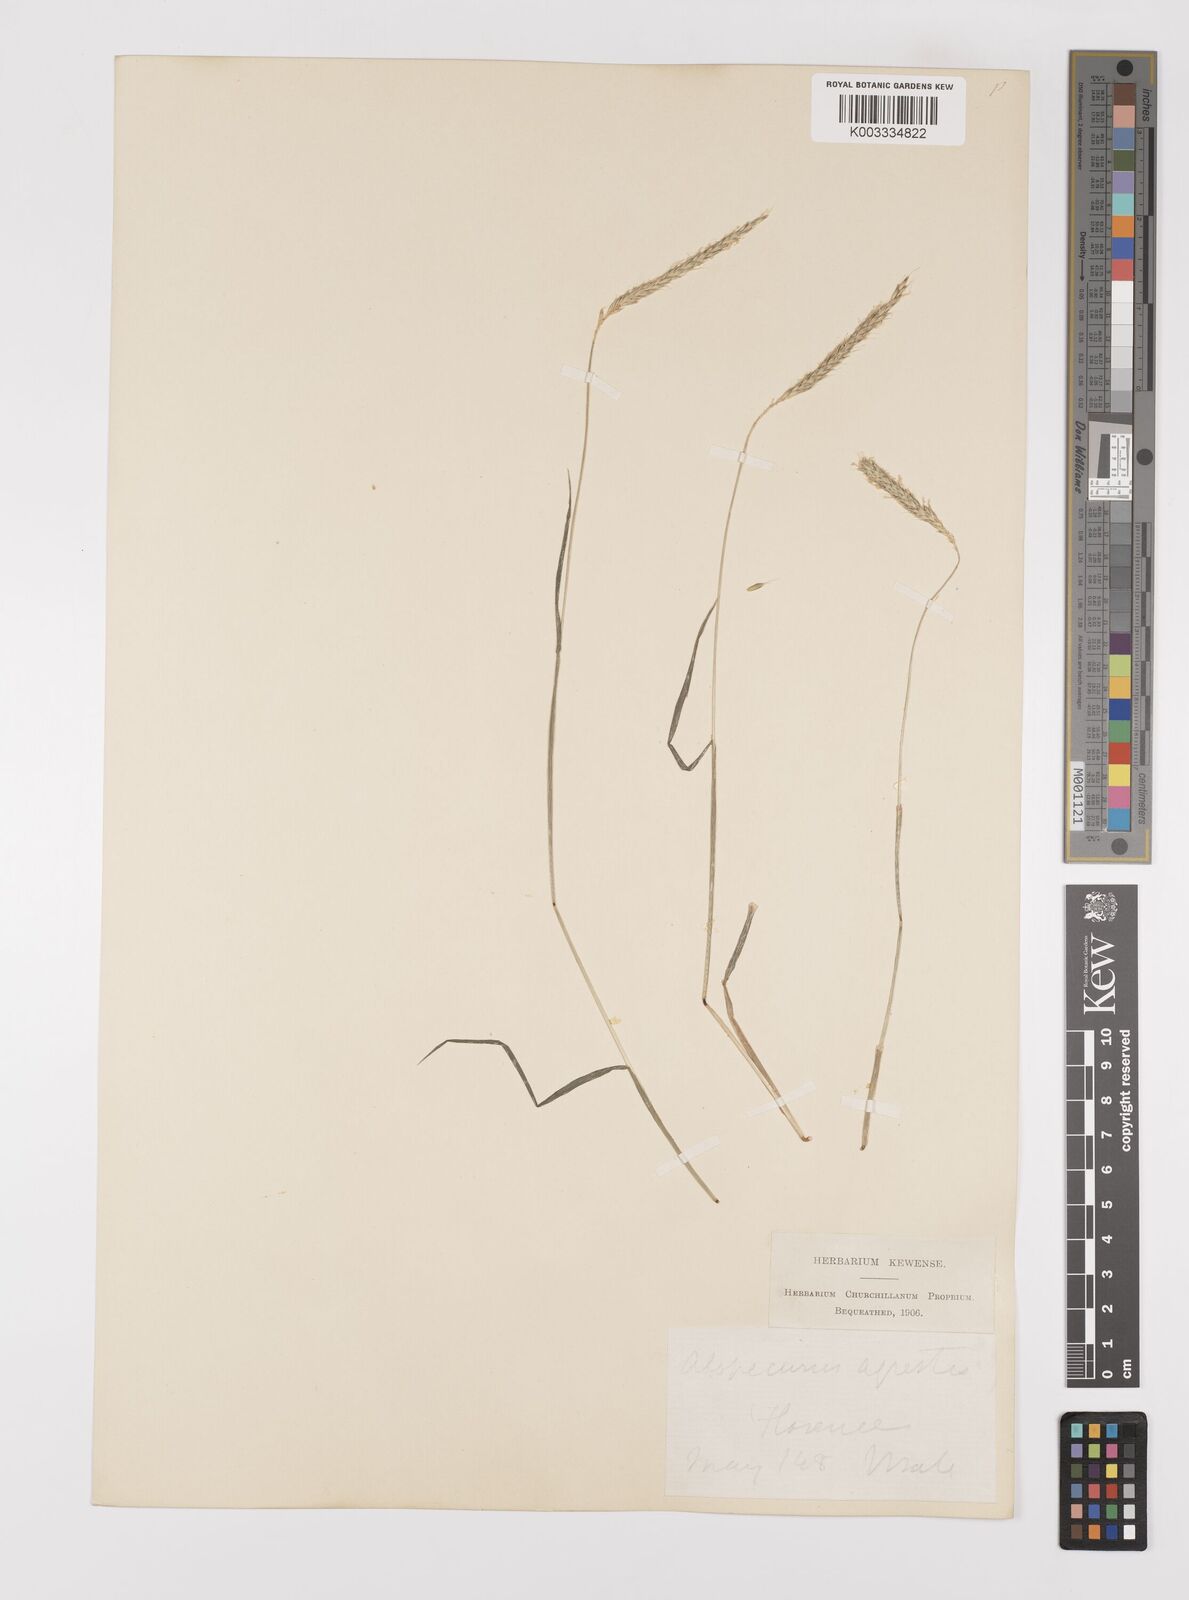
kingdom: Plantae
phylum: Tracheophyta
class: Liliopsida
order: Poales
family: Poaceae
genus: Alopecurus
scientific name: Alopecurus myosuroides
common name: Black-grass
